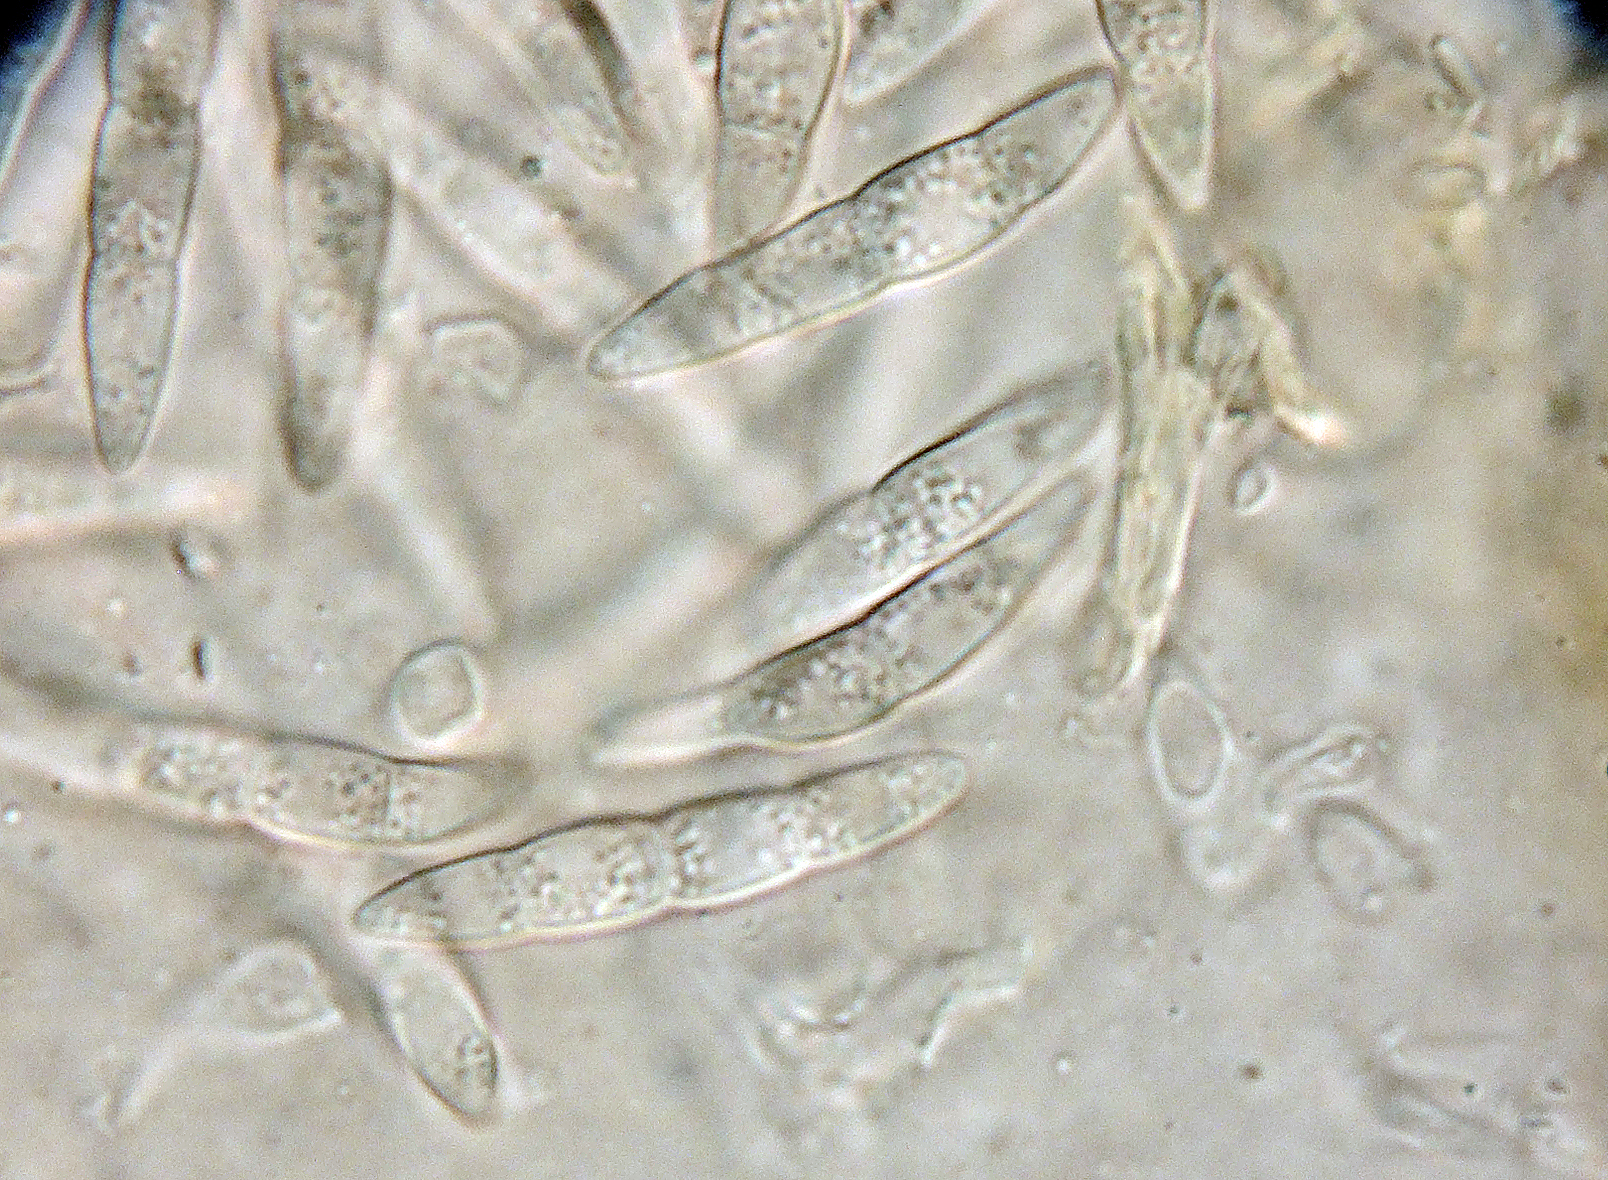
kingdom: Fungi
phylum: Ascomycota
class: Dothideomycetes
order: Pleosporales
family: Phaeosphaeriaceae
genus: Stagonospora
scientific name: Stagonospora arenaria
